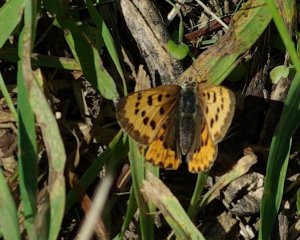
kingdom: Animalia
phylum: Arthropoda
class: Insecta
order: Lepidoptera
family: Sesiidae
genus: Sesia
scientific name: Sesia Lycaena helloides
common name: Purplish Copper
